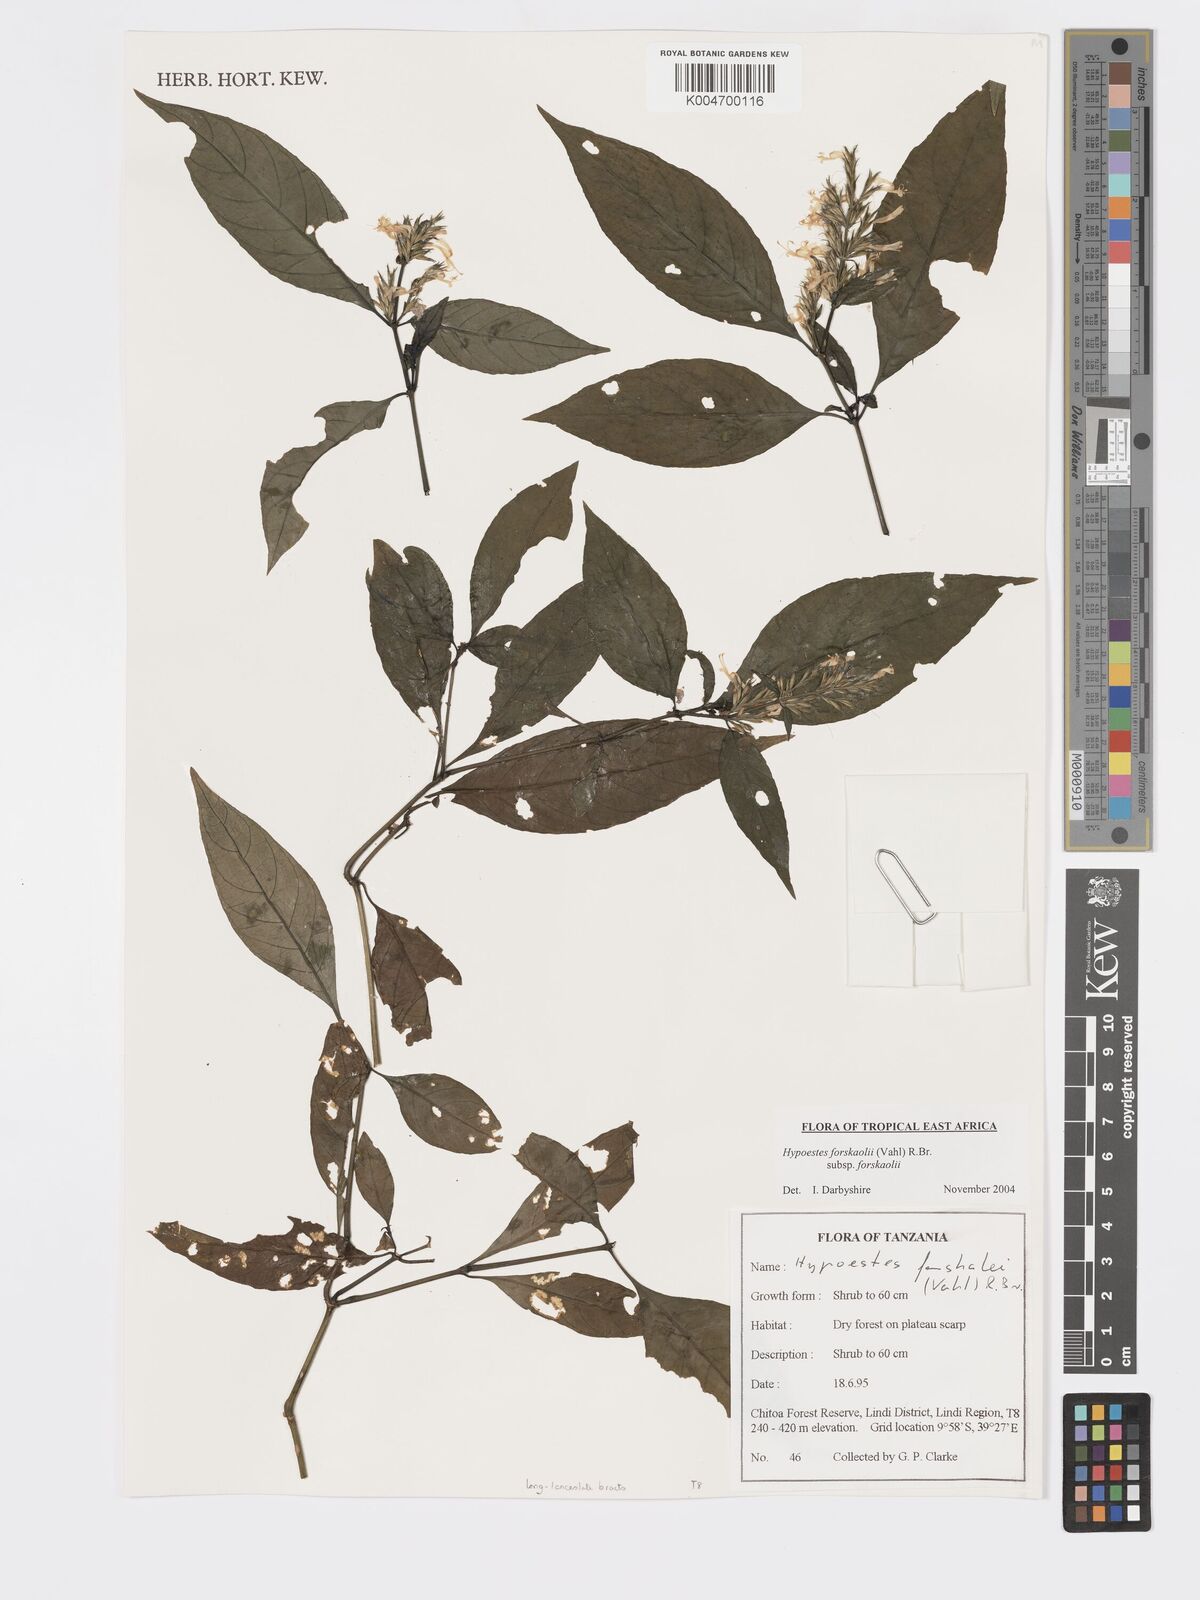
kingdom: Plantae
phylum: Tracheophyta
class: Magnoliopsida
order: Lamiales
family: Acanthaceae
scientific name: Acanthaceae
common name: Acanthaceae
